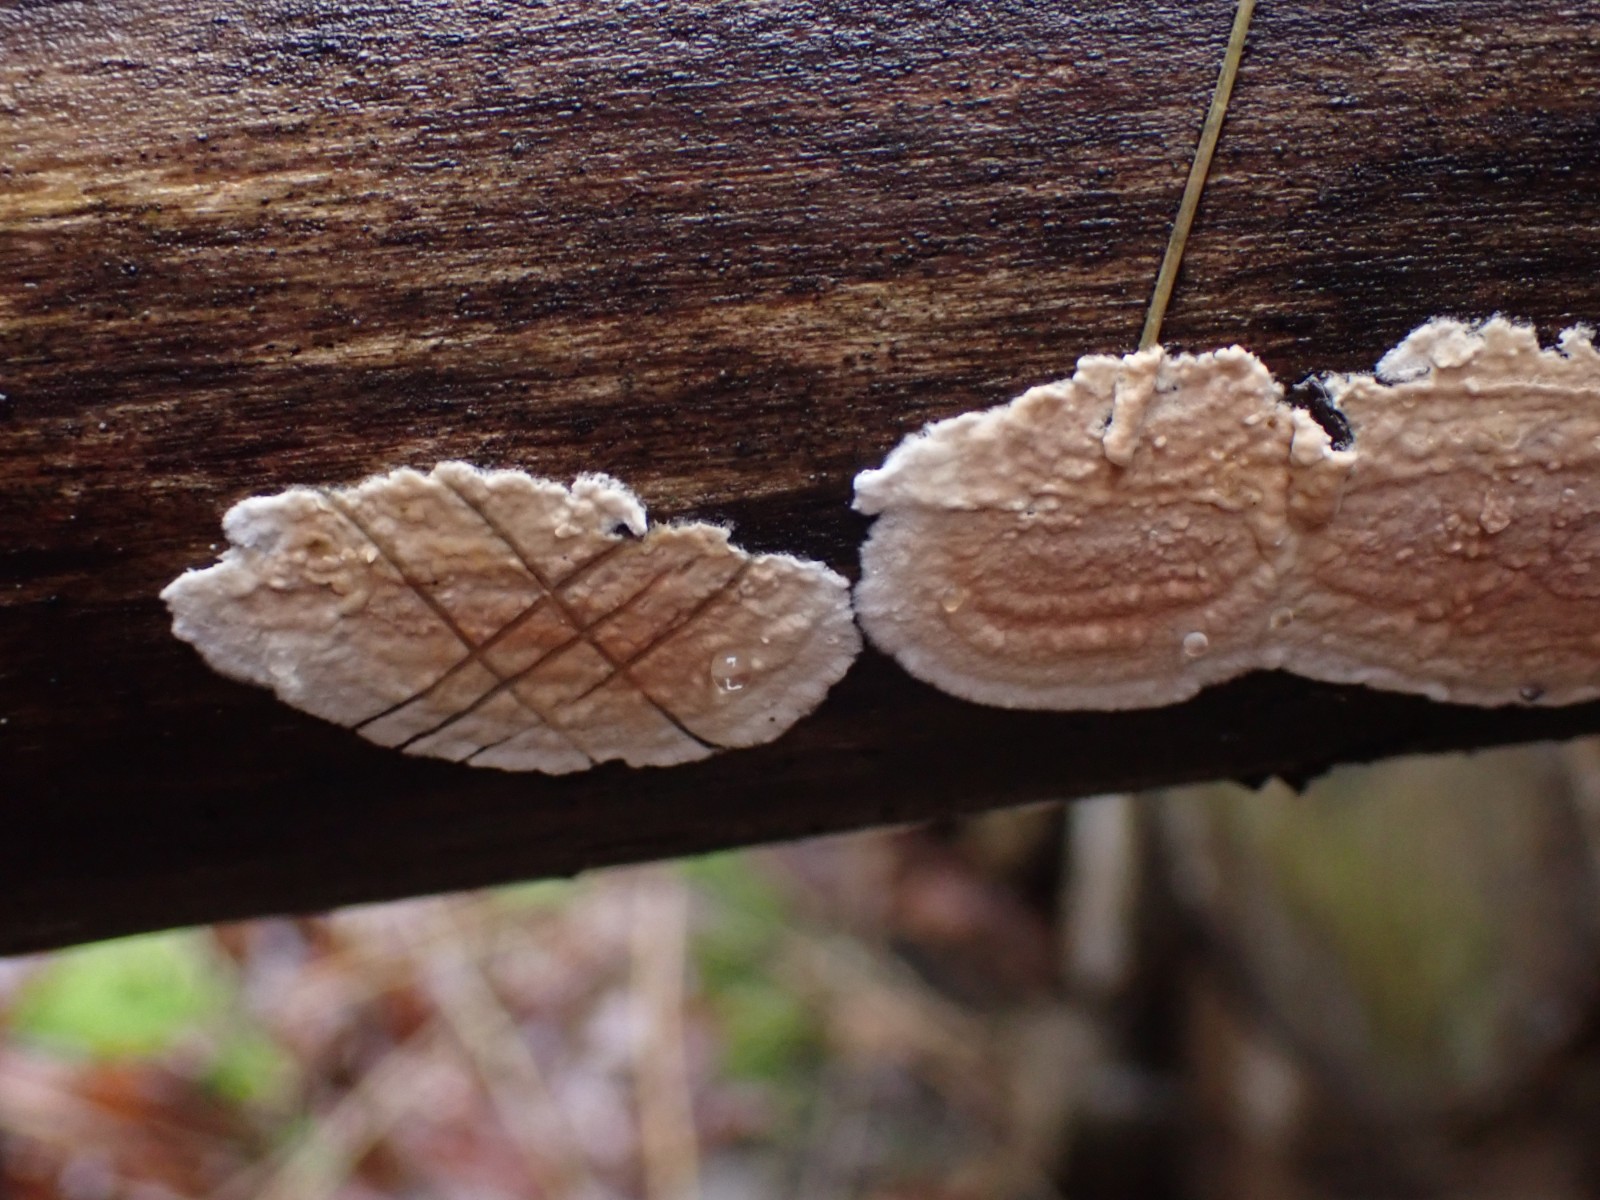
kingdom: Fungi
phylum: Basidiomycota
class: Agaricomycetes
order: Agaricales
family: Physalacriaceae
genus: Cylindrobasidium
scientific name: Cylindrobasidium evolvens
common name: sprækkehinde
